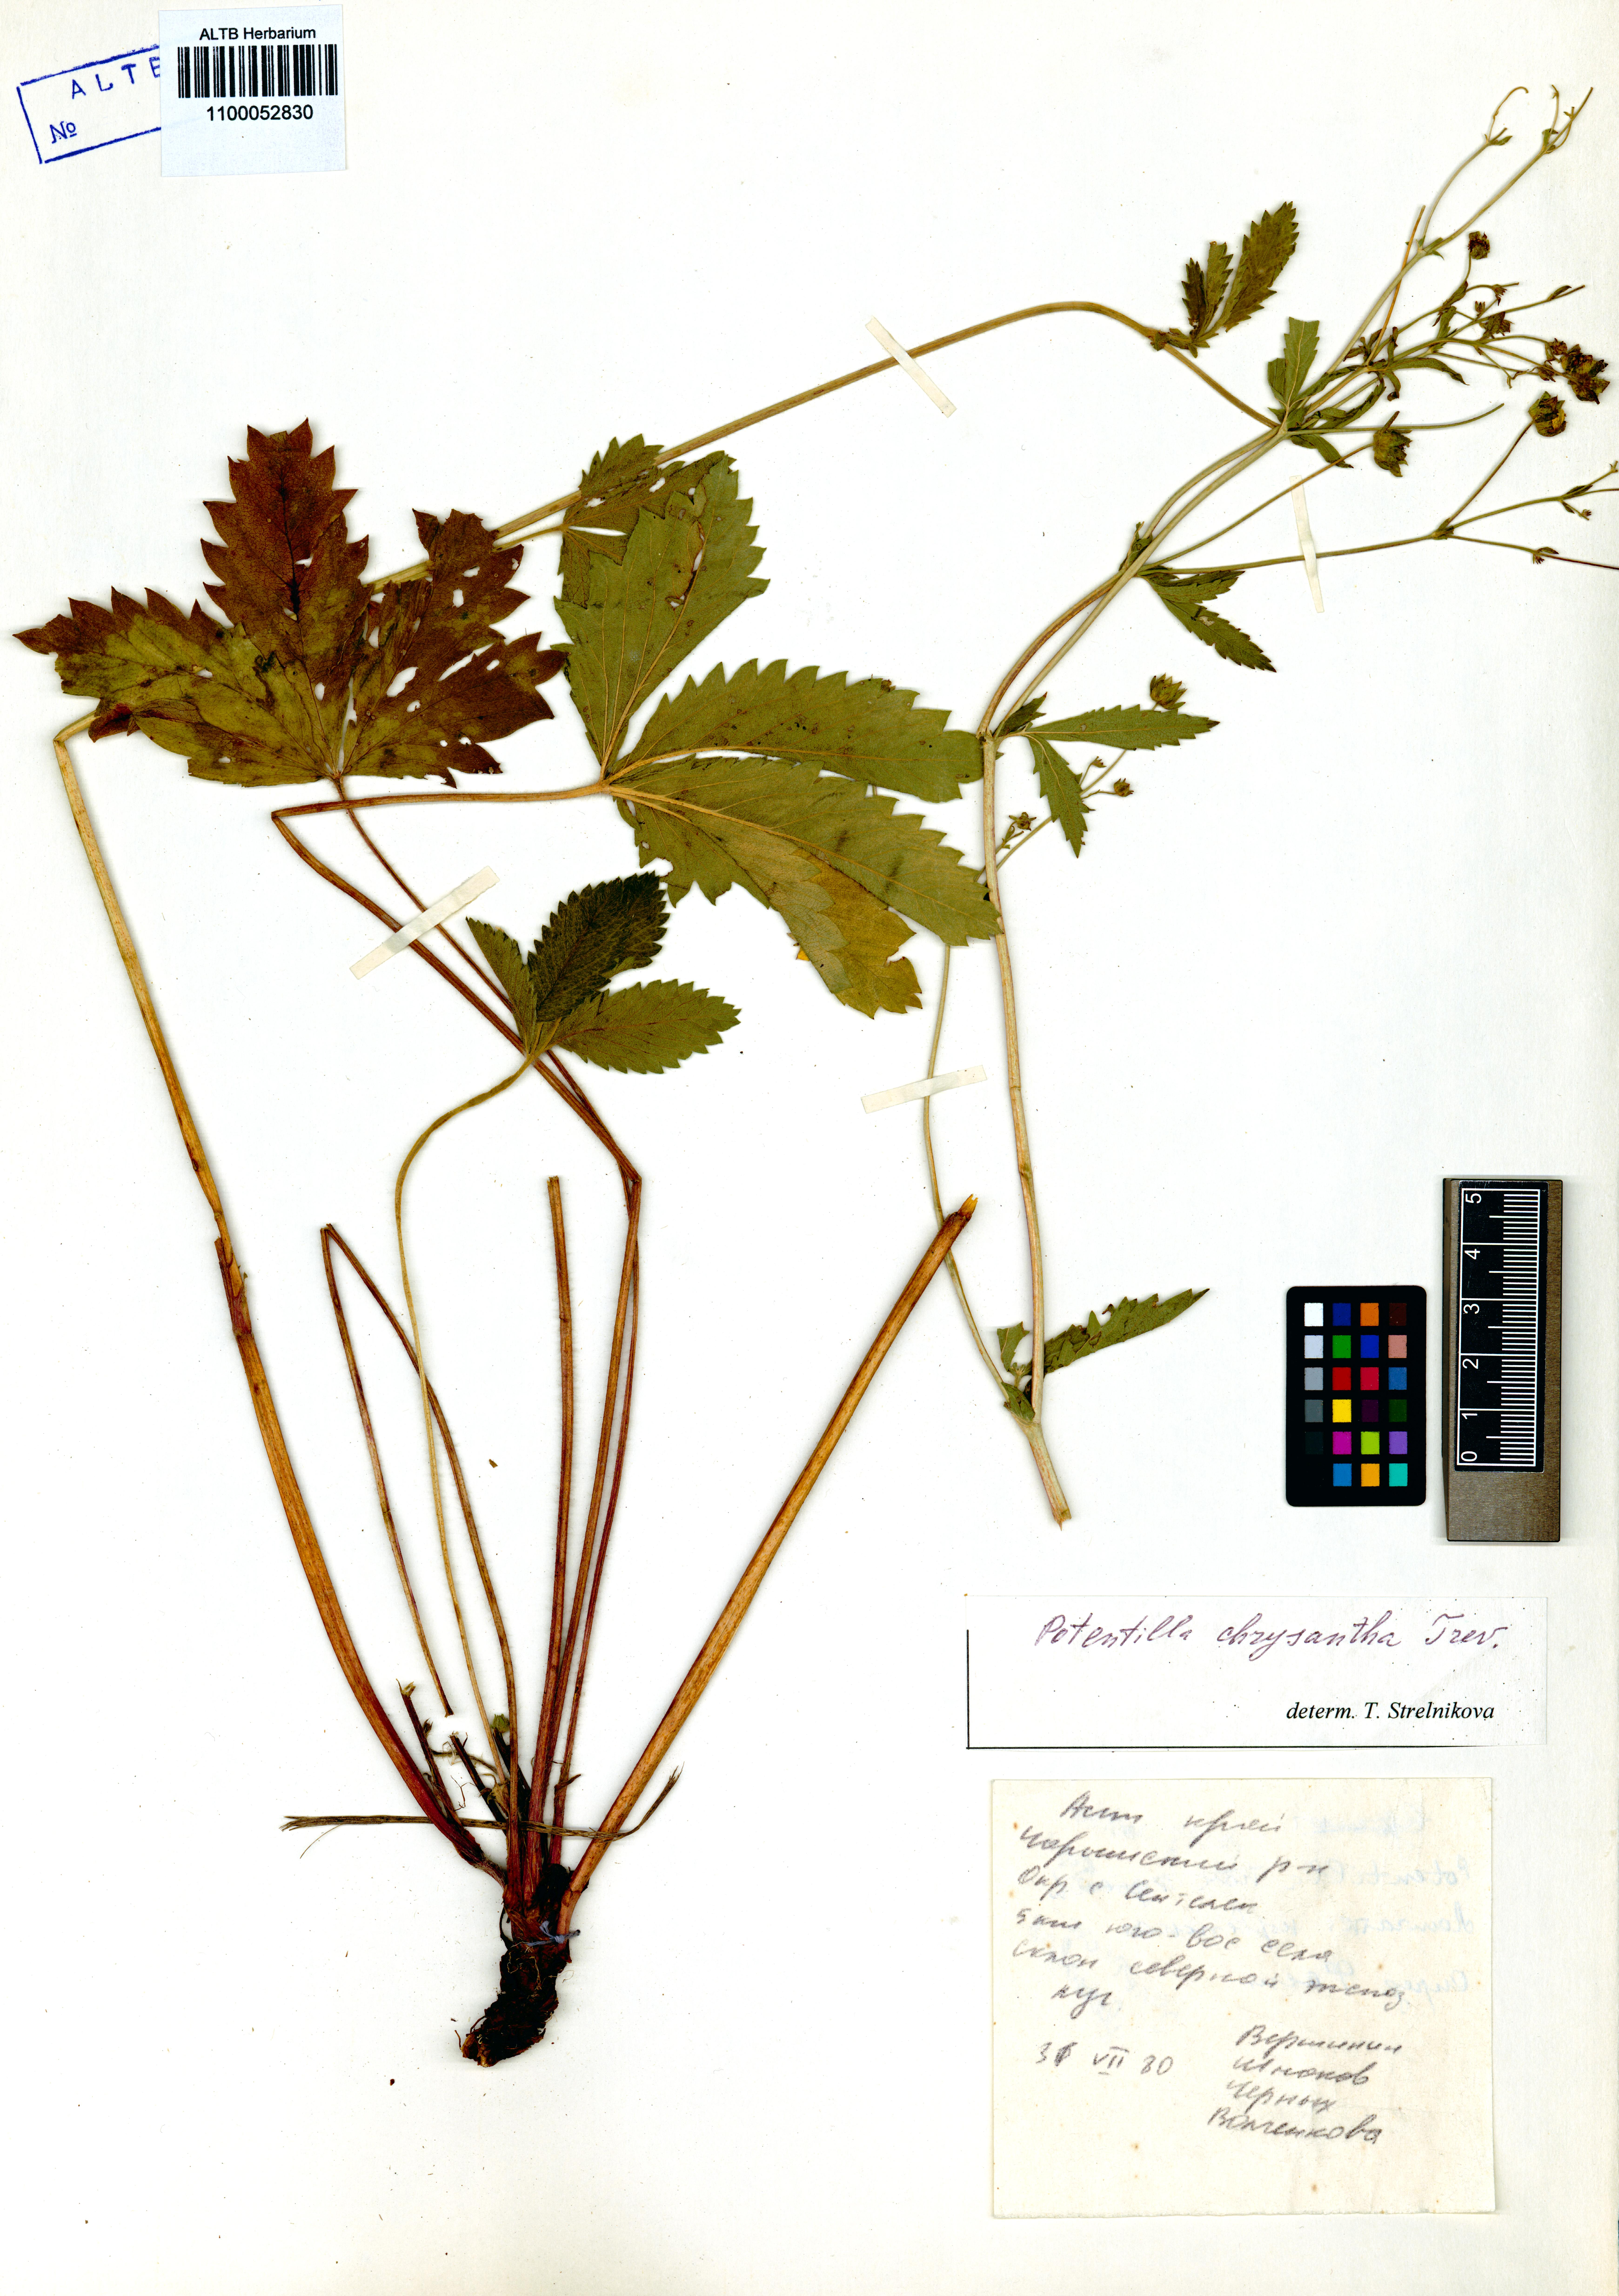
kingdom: Plantae
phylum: Tracheophyta
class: Magnoliopsida
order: Rosales
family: Rosaceae
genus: Potentilla
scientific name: Potentilla chrysantha
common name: Thuringian cinquefoil
